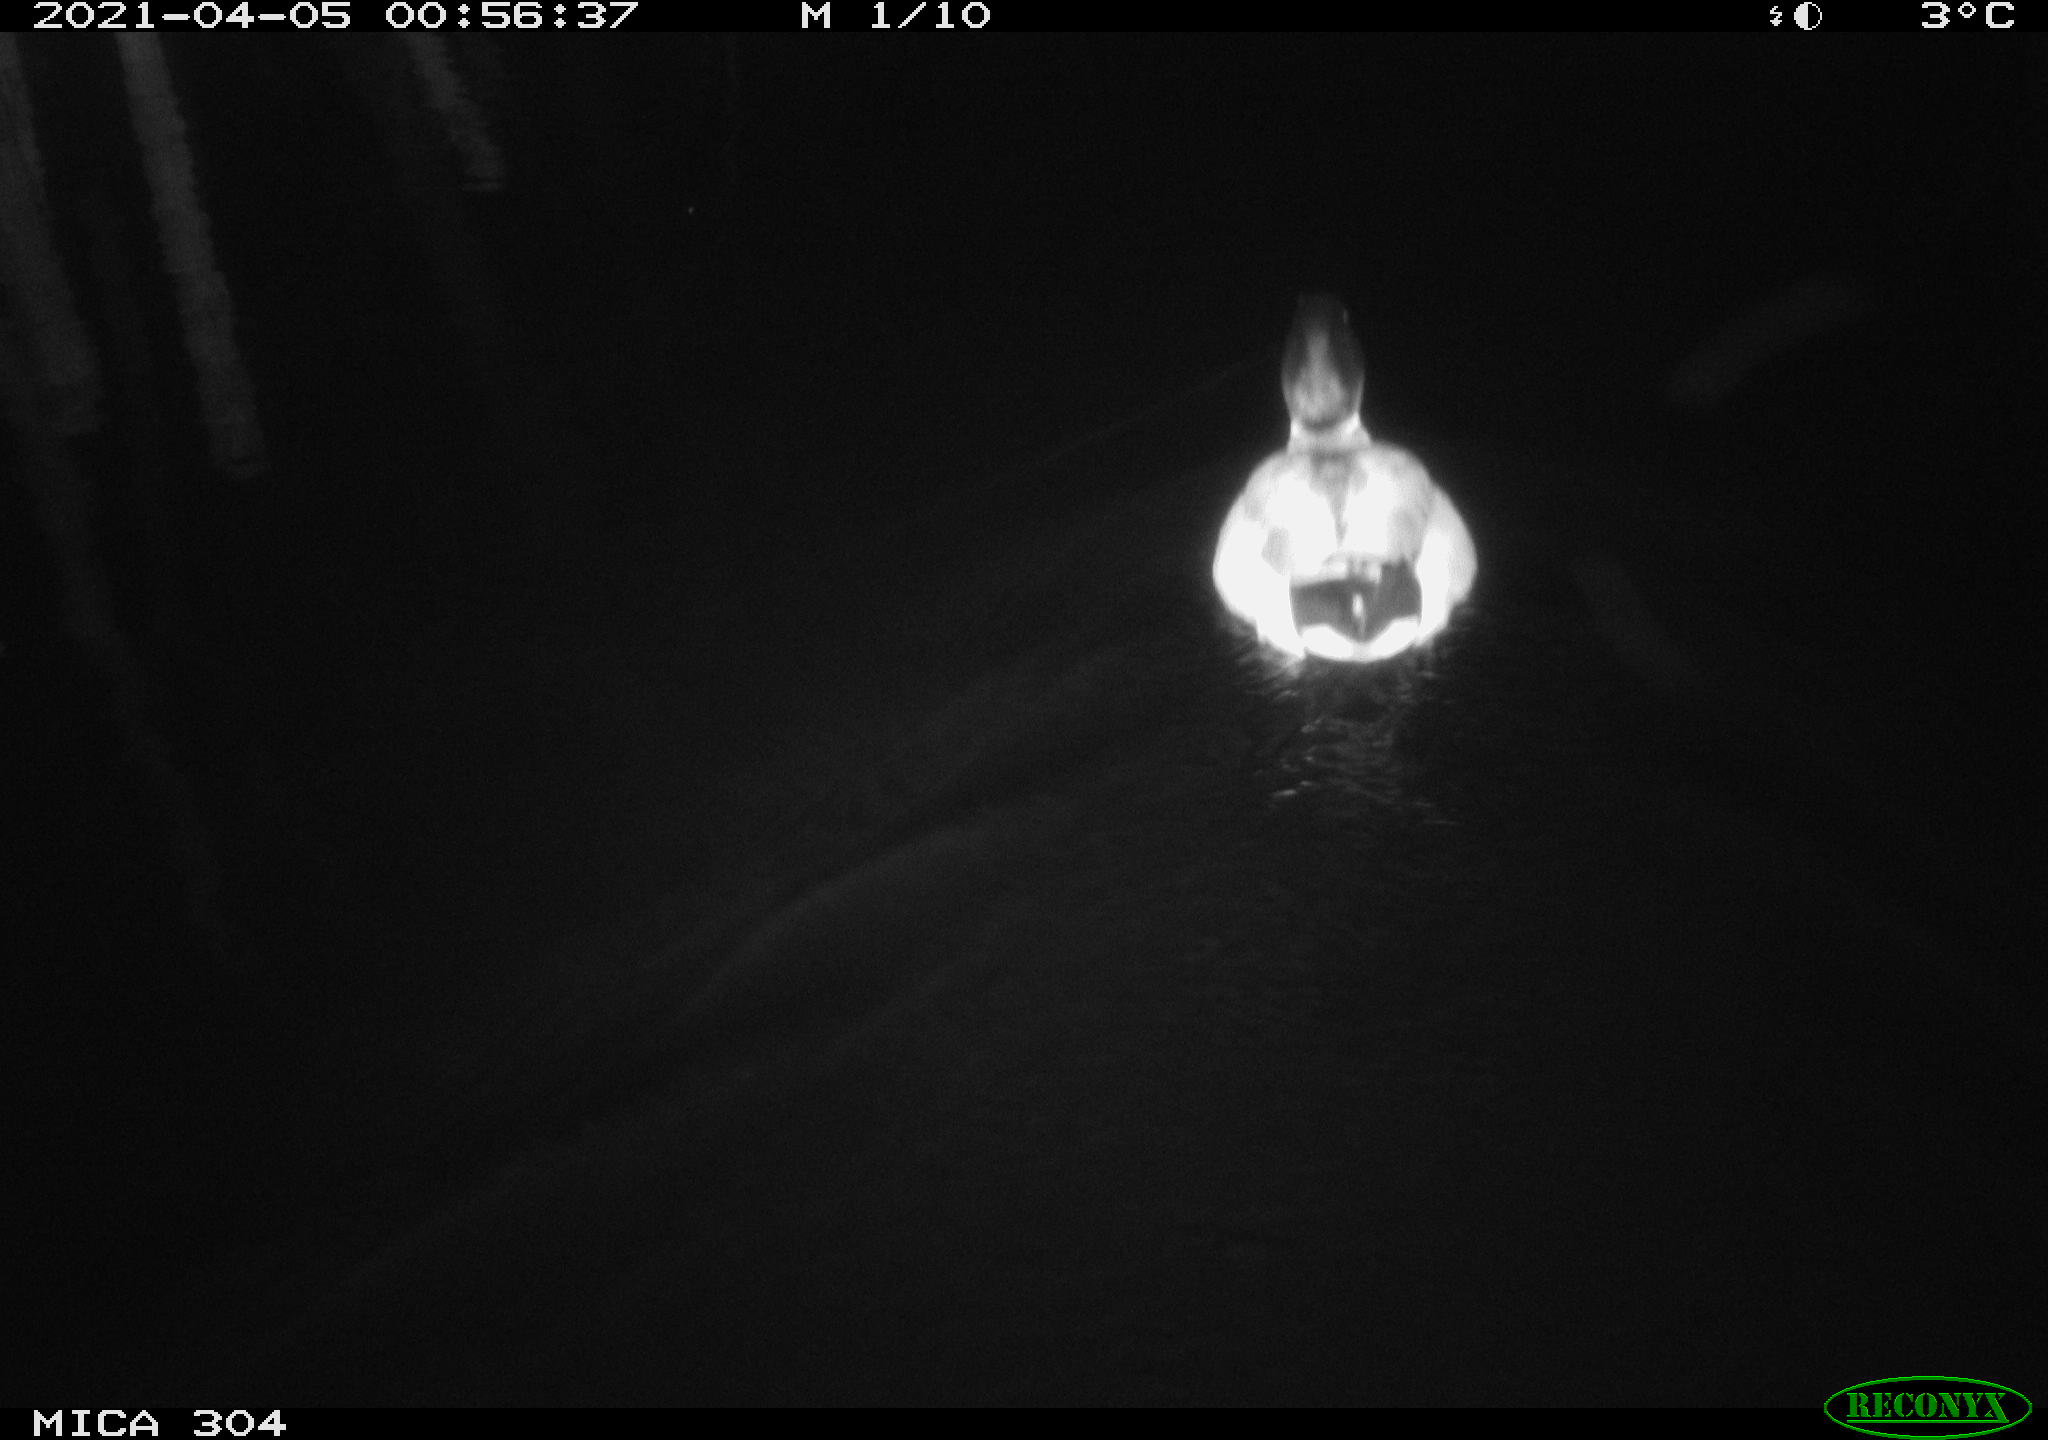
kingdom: Animalia
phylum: Chordata
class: Aves
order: Anseriformes
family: Anatidae
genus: Anas
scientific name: Anas
